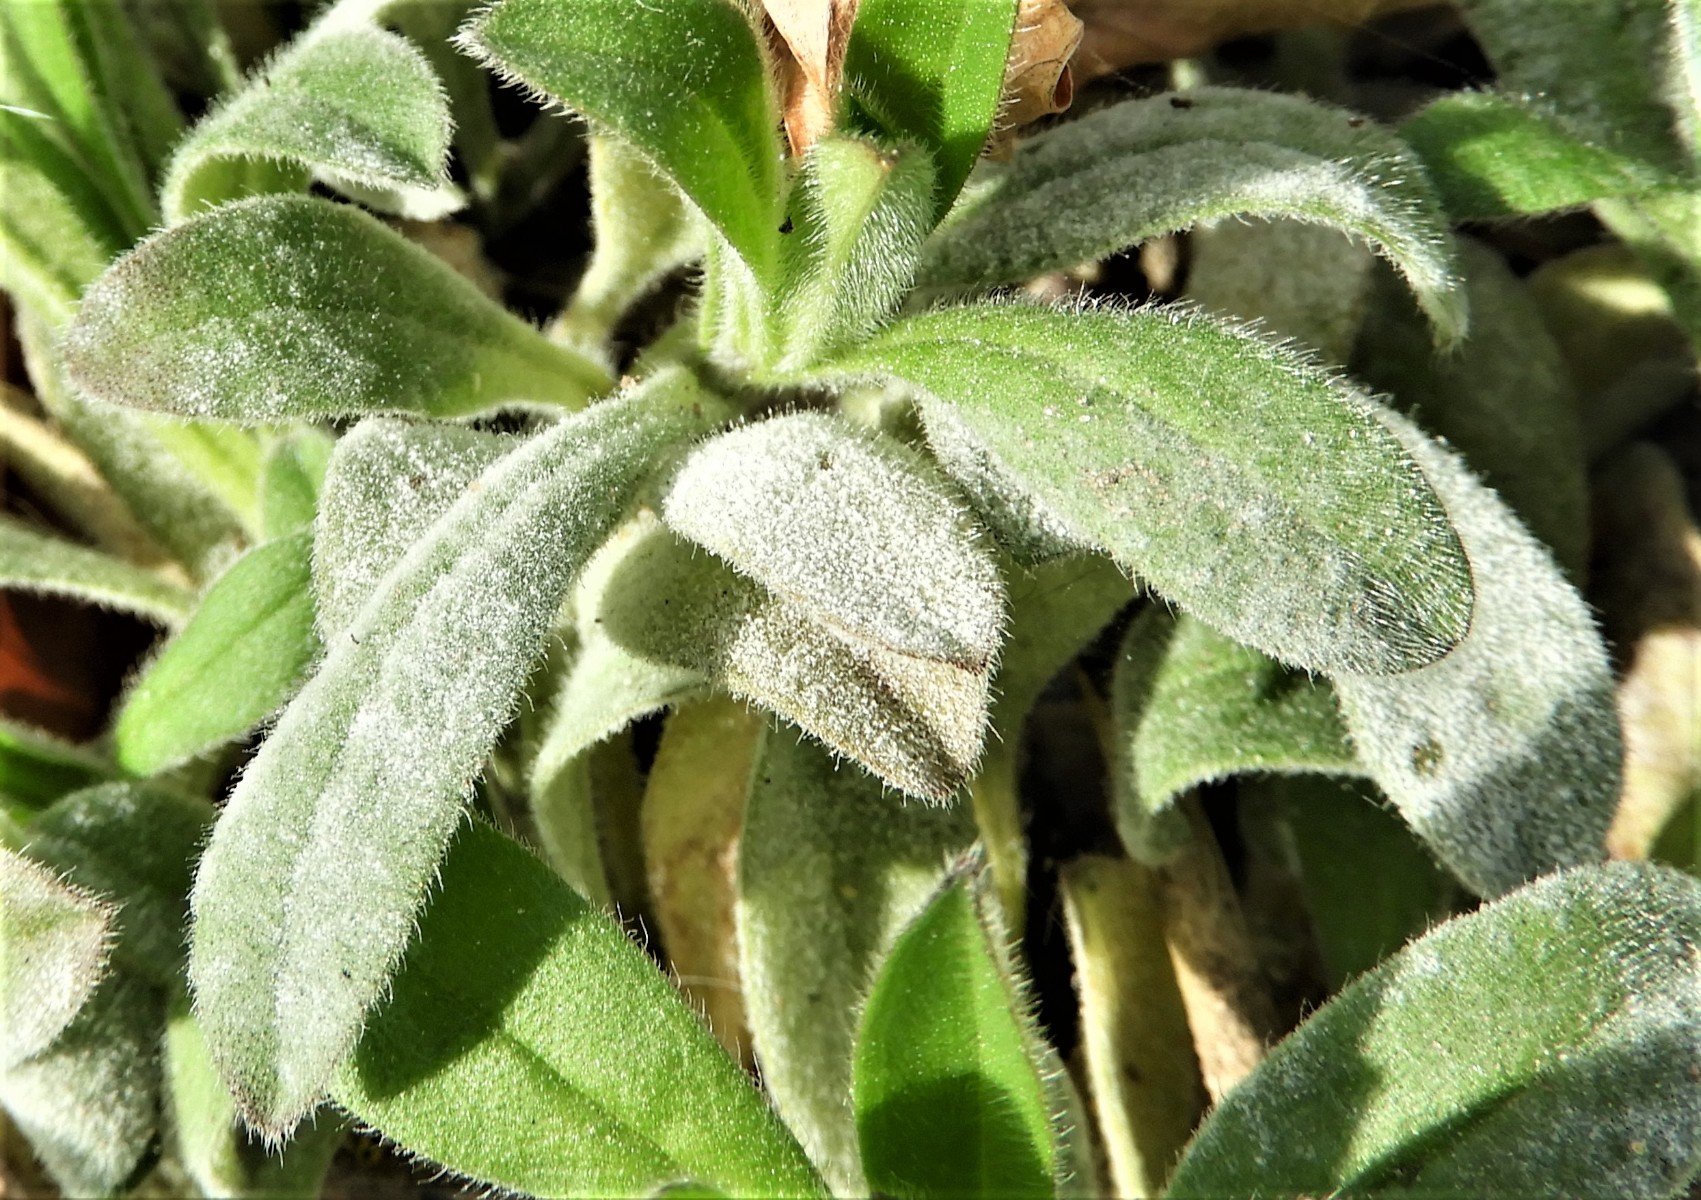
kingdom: Fungi
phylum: Ascomycota
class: Leotiomycetes
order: Helotiales
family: Erysiphaceae
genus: Golovinomyces
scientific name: Golovinomyces asperifolii
